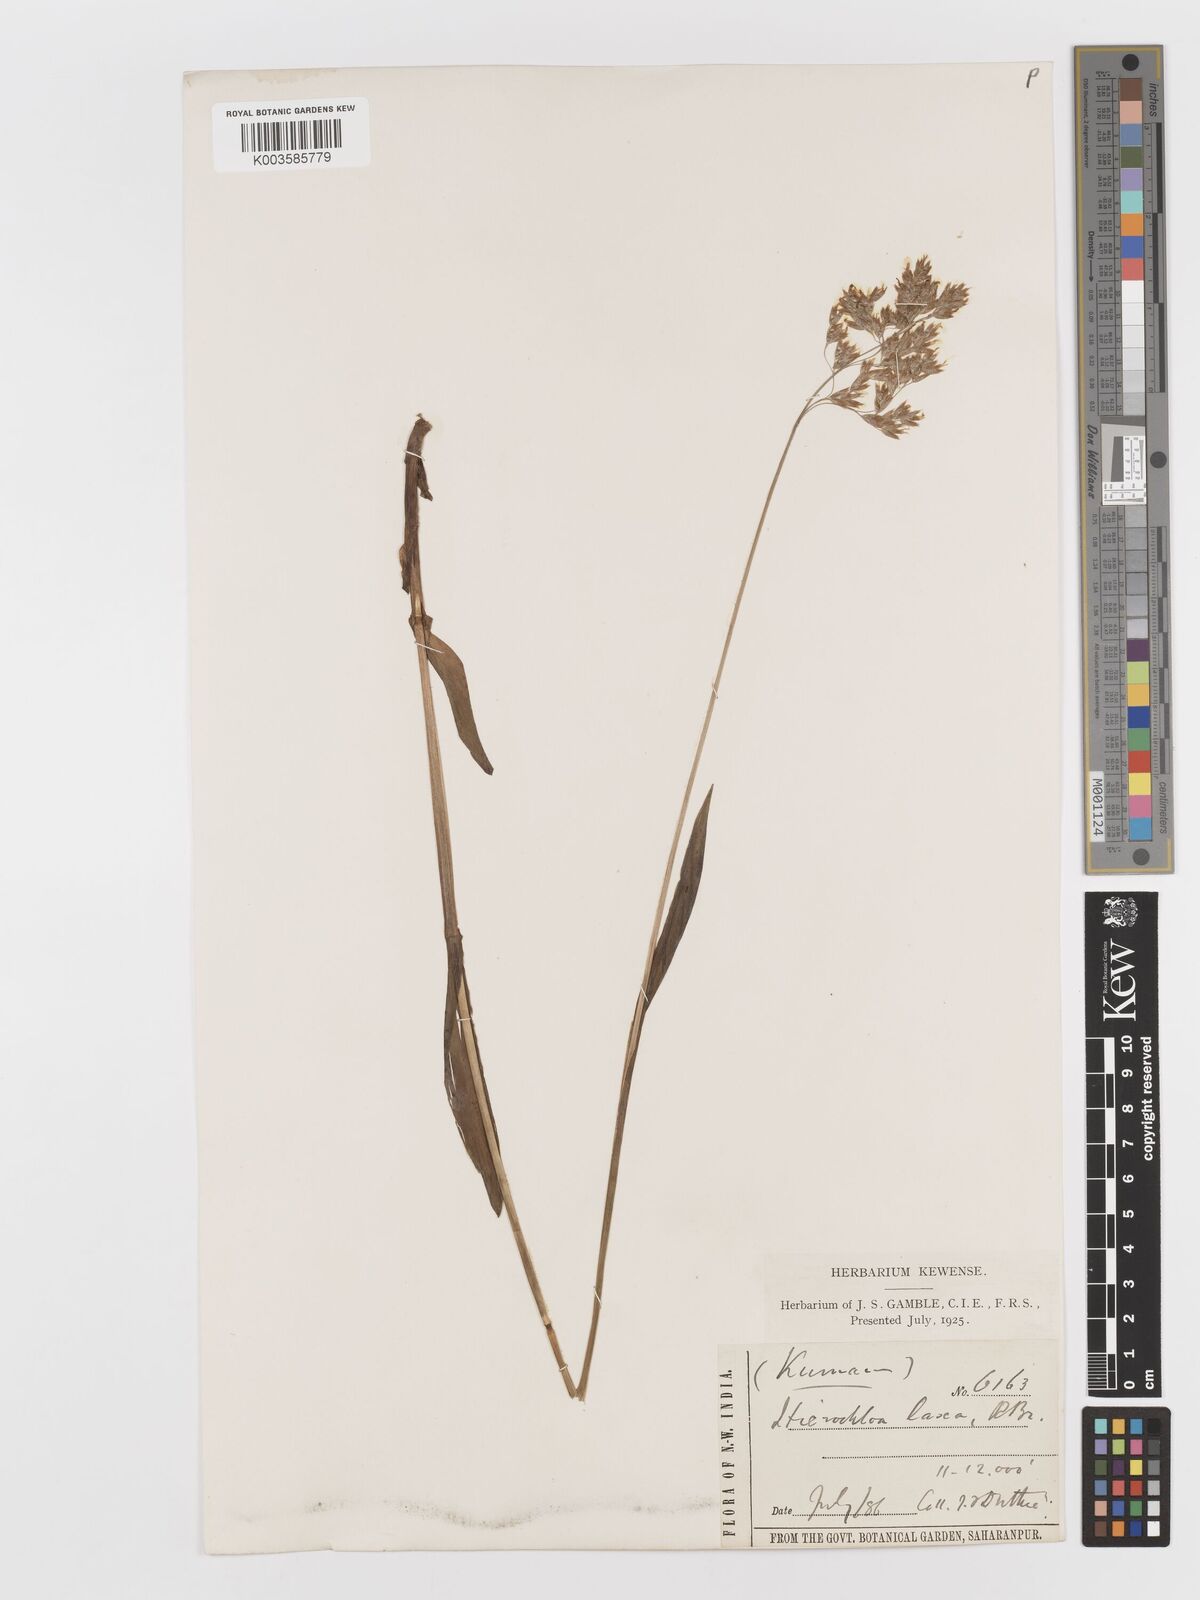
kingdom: Plantae
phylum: Tracheophyta
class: Liliopsida
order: Poales
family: Poaceae
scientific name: Poaceae
